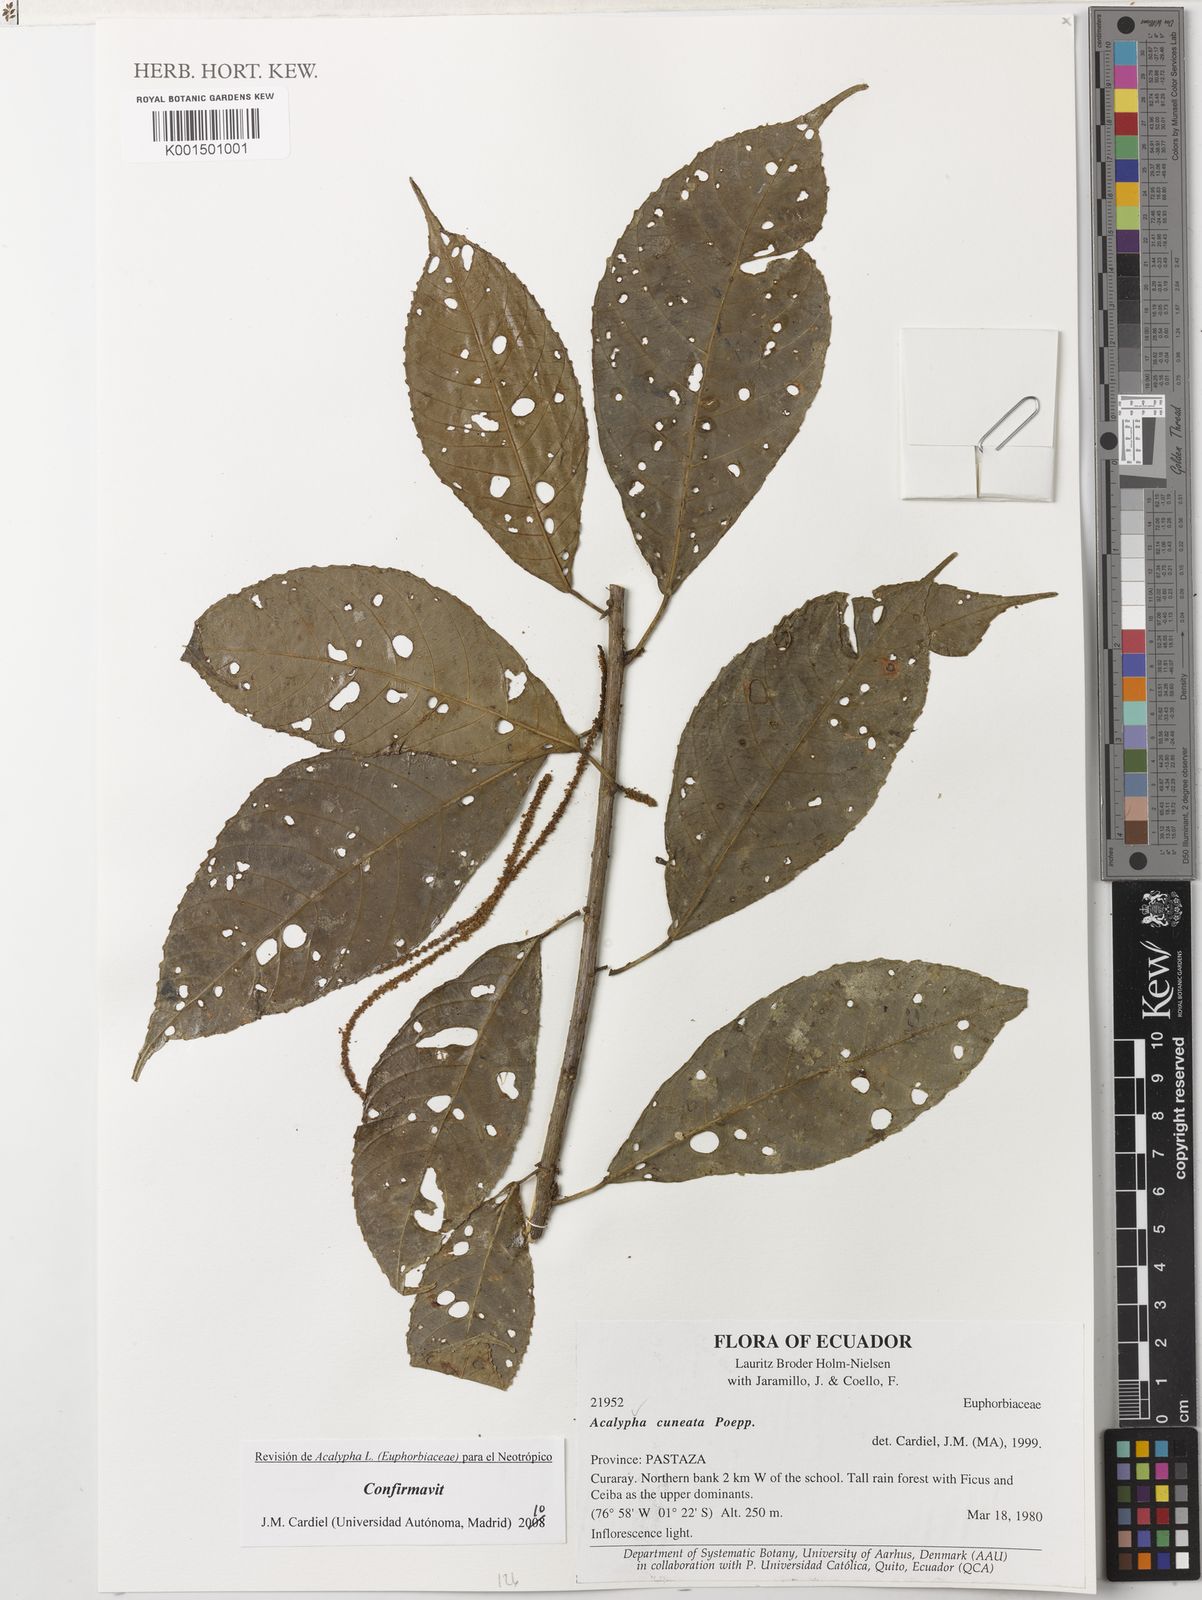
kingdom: Plantae
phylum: Tracheophyta
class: Magnoliopsida
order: Malpighiales
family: Euphorbiaceae
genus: Acalypha
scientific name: Acalypha cuneata
